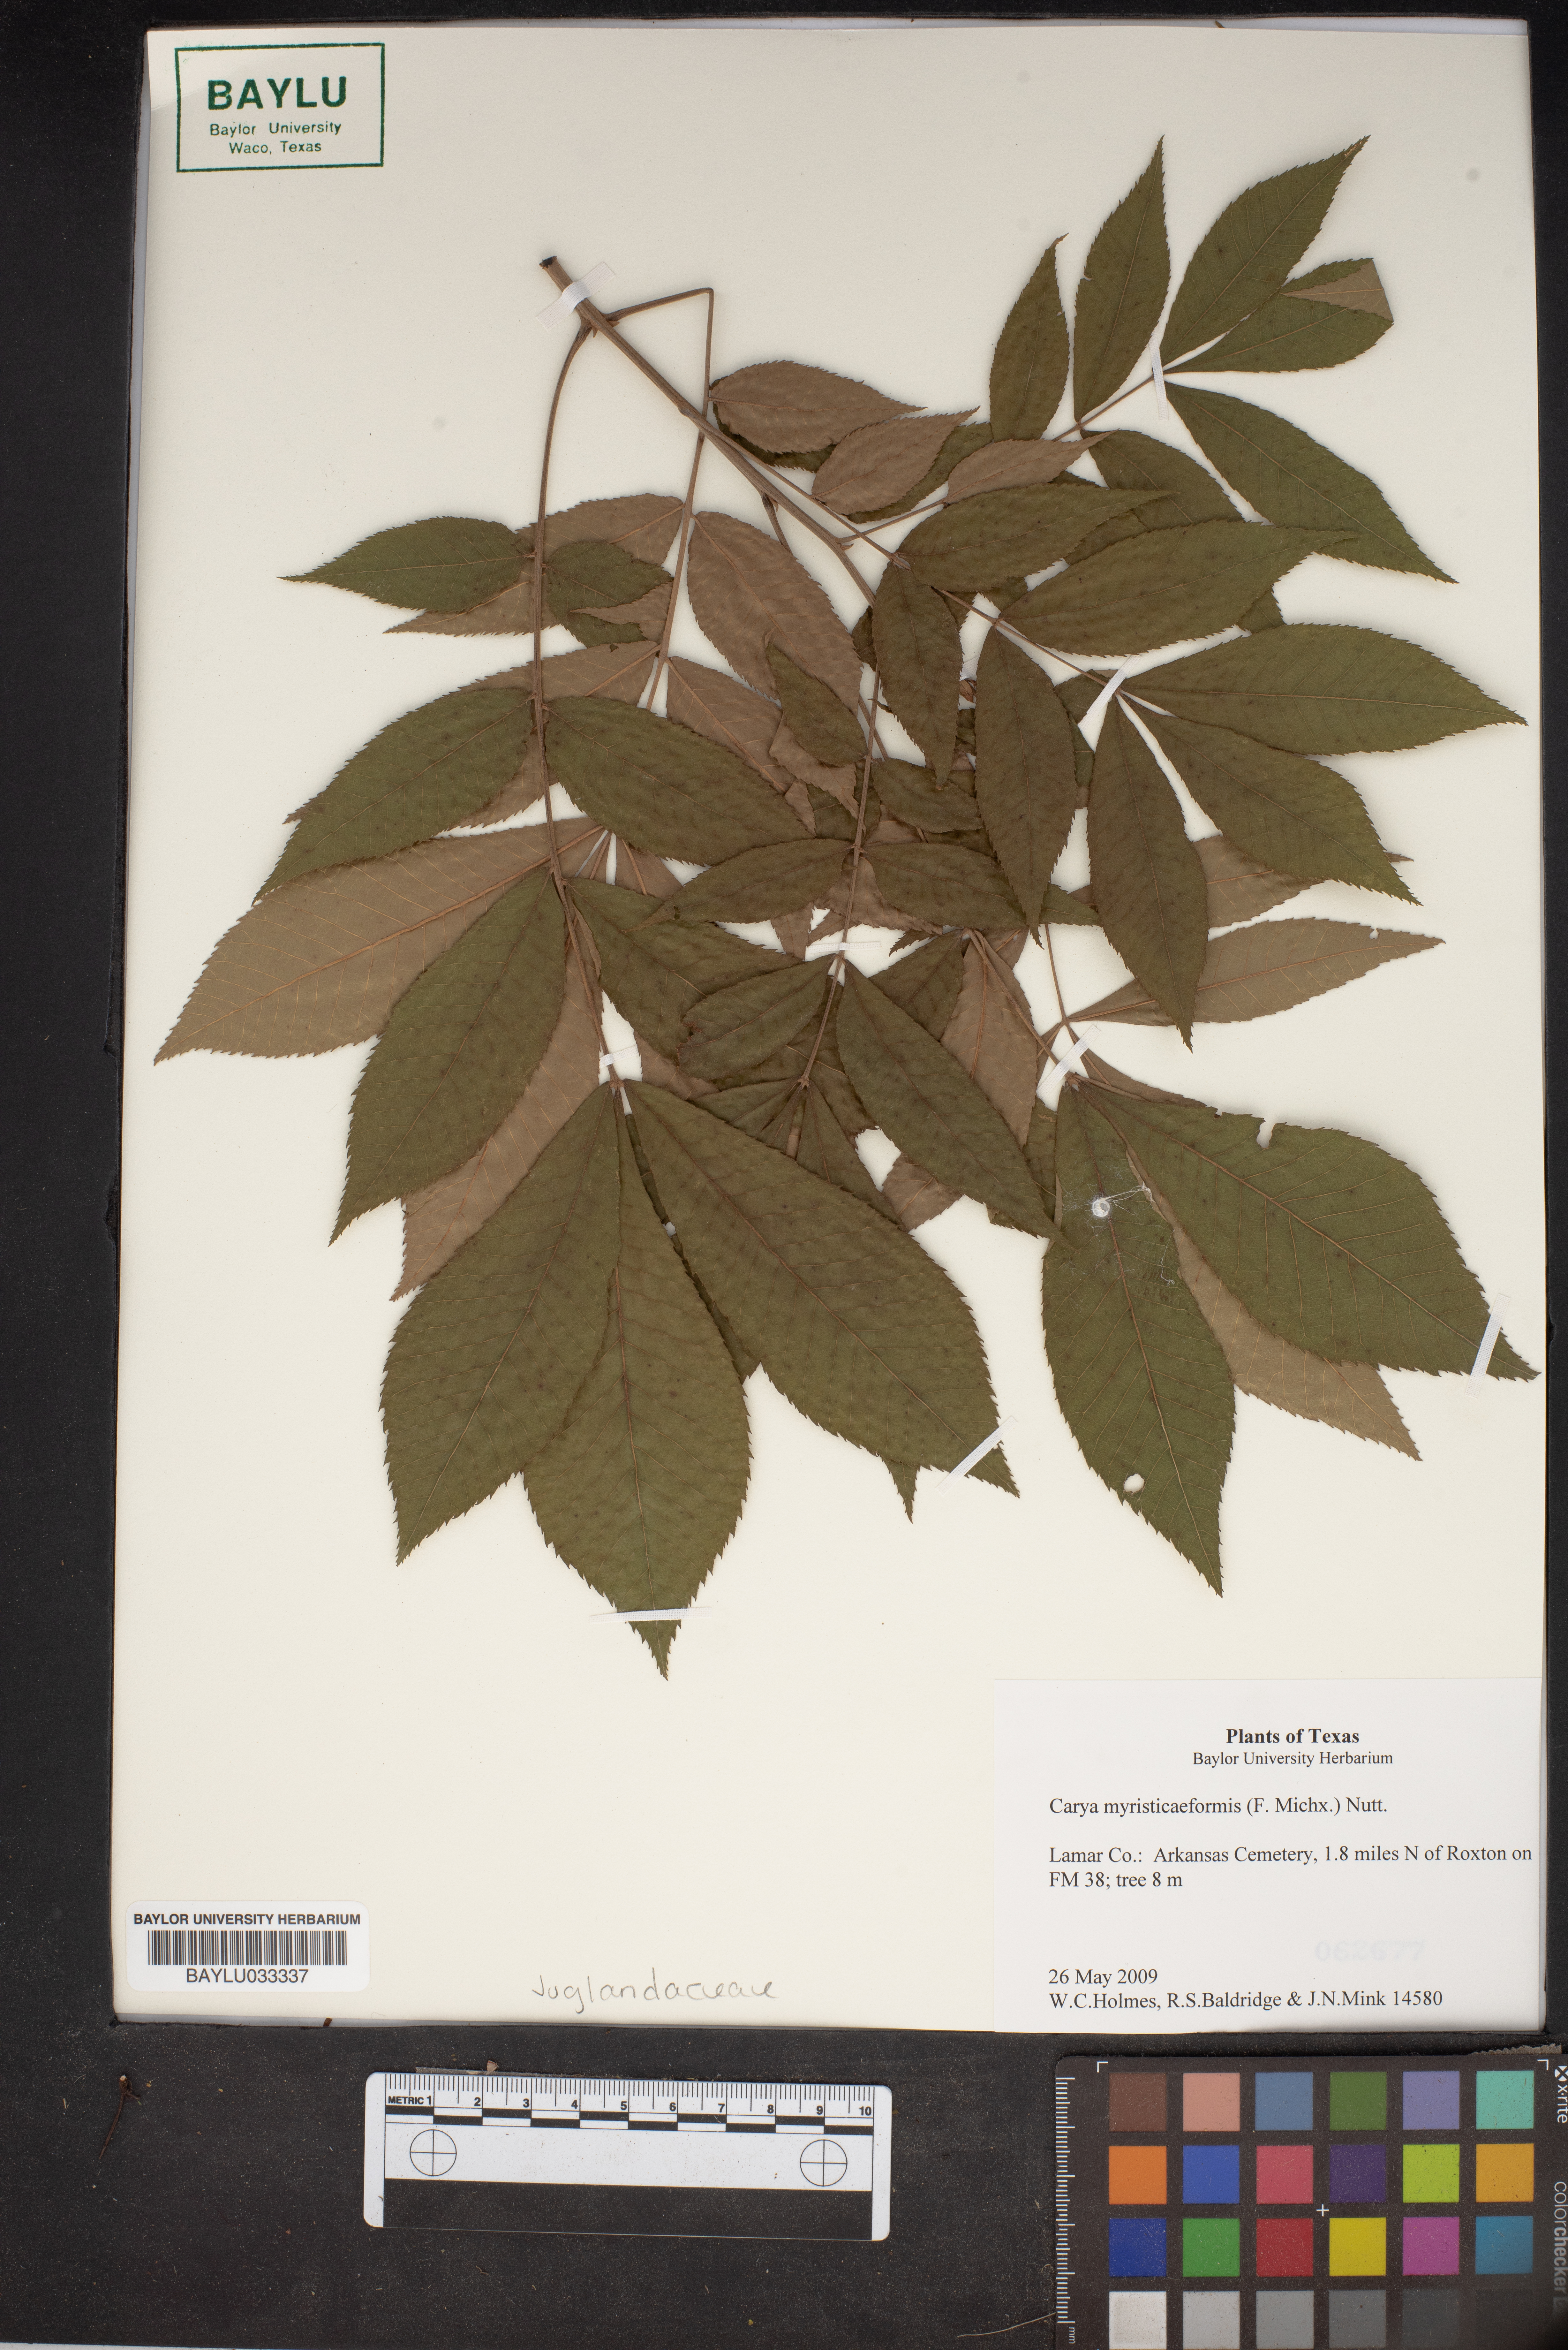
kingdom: Plantae
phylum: Tracheophyta
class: Magnoliopsida
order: Fagales
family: Juglandaceae
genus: Carya
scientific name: Carya myristiciformis
